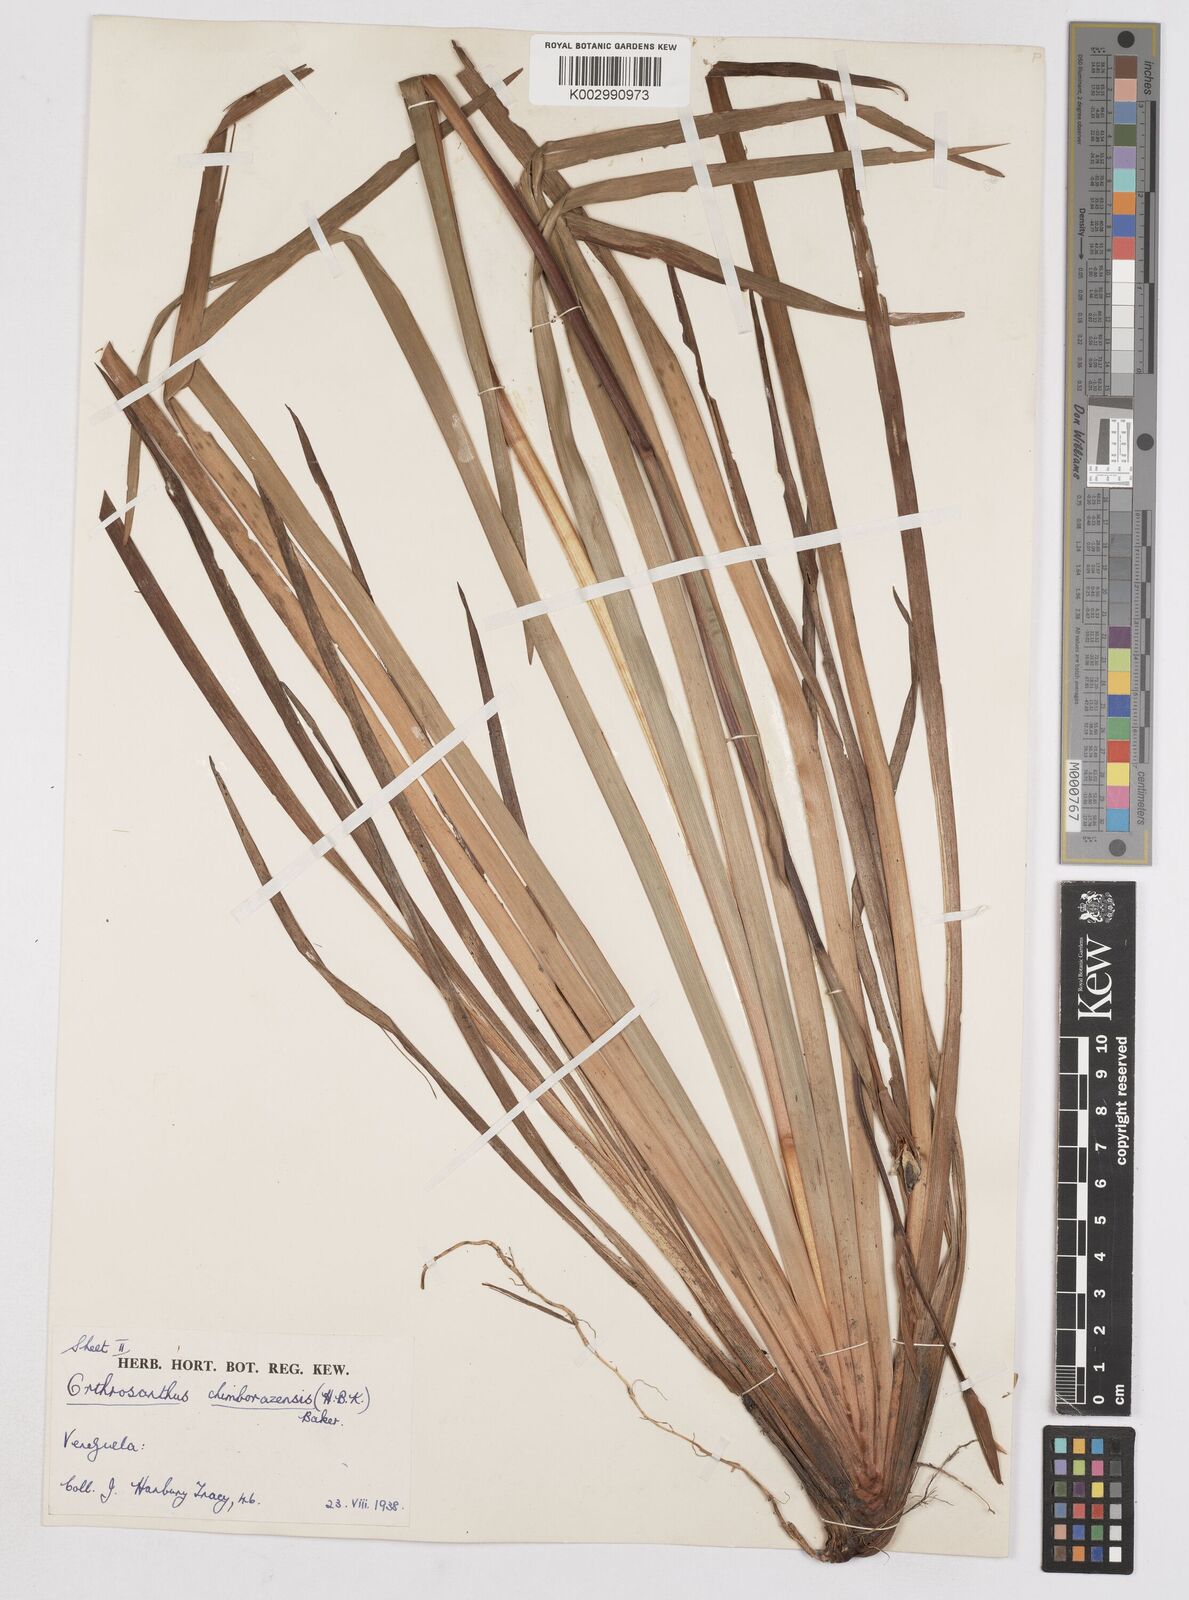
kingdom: Plantae
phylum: Tracheophyta
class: Liliopsida
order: Asparagales
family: Iridaceae
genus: Orthrosanthus
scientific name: Orthrosanthus chimboracensis
